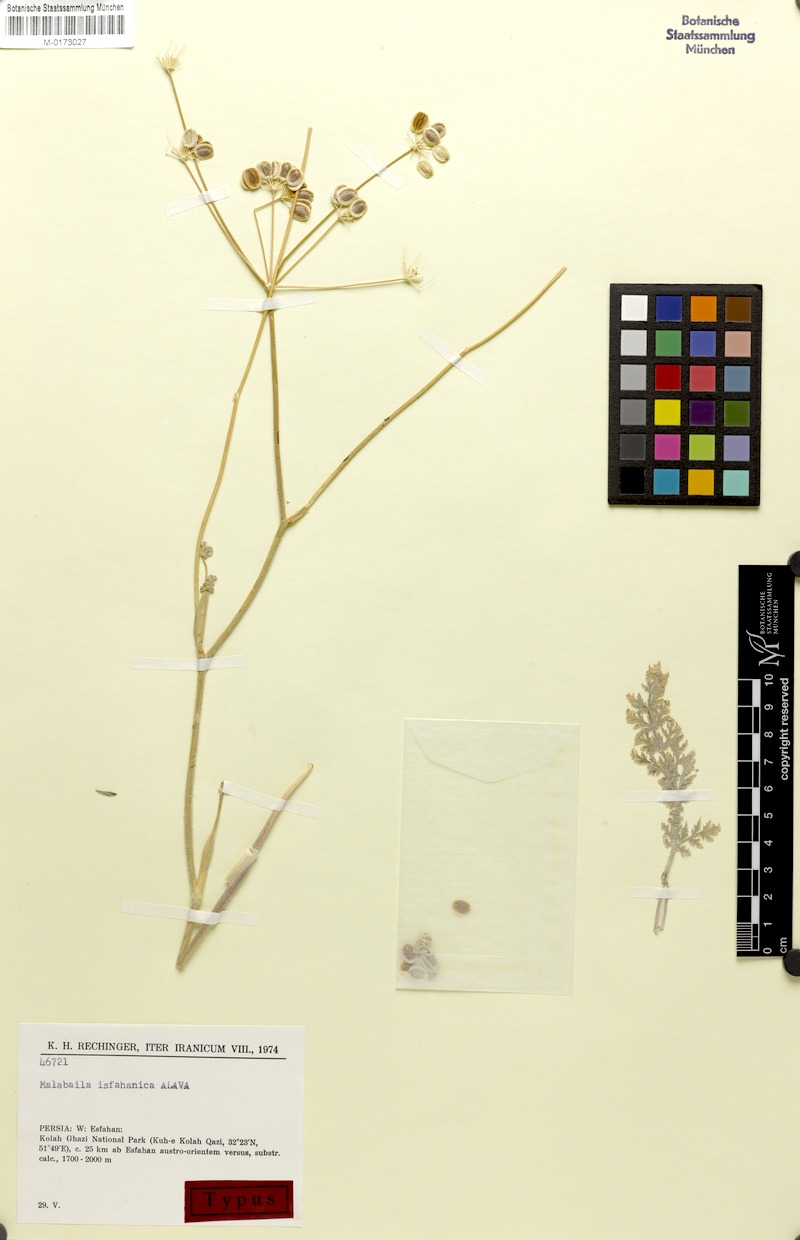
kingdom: Plantae
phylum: Tracheophyta
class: Magnoliopsida
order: Apiales
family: Apiaceae
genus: Leiotulus
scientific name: Leiotulus isfahanicus
